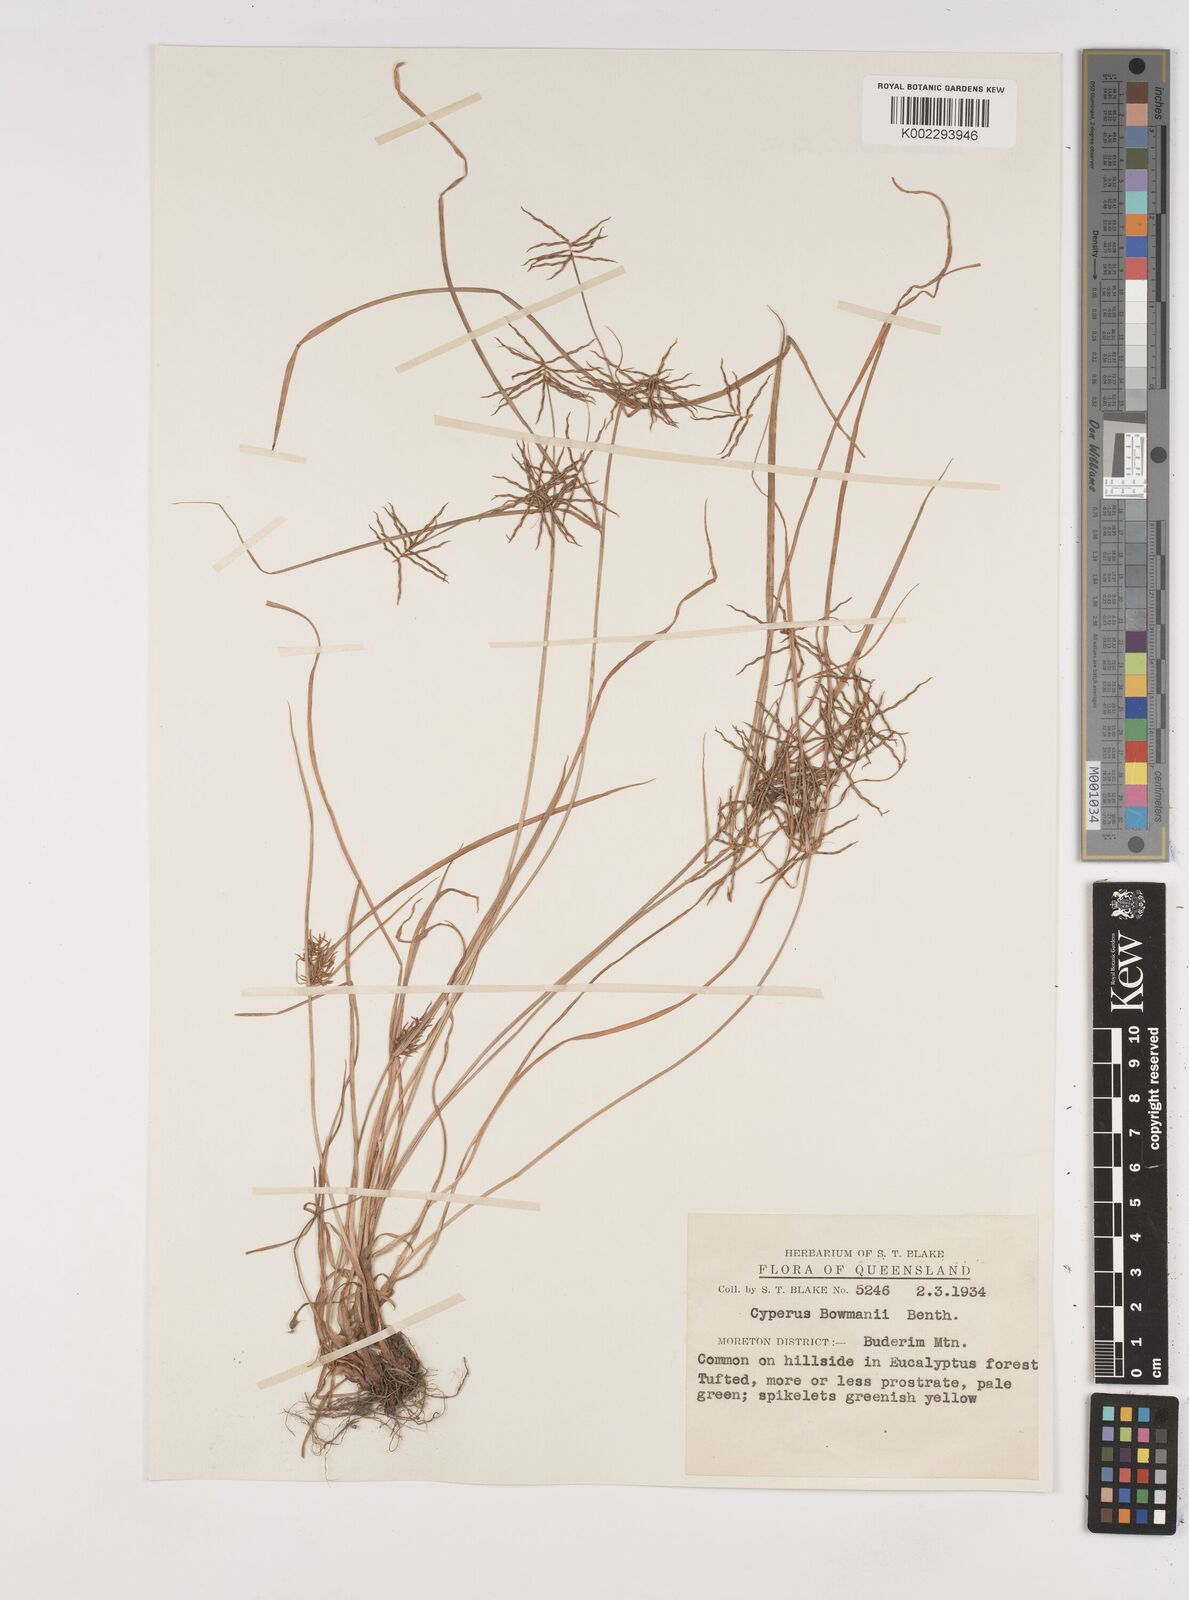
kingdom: Plantae
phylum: Tracheophyta
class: Liliopsida
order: Poales
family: Cyperaceae
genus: Cyperus
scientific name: Cyperus bowmanni
